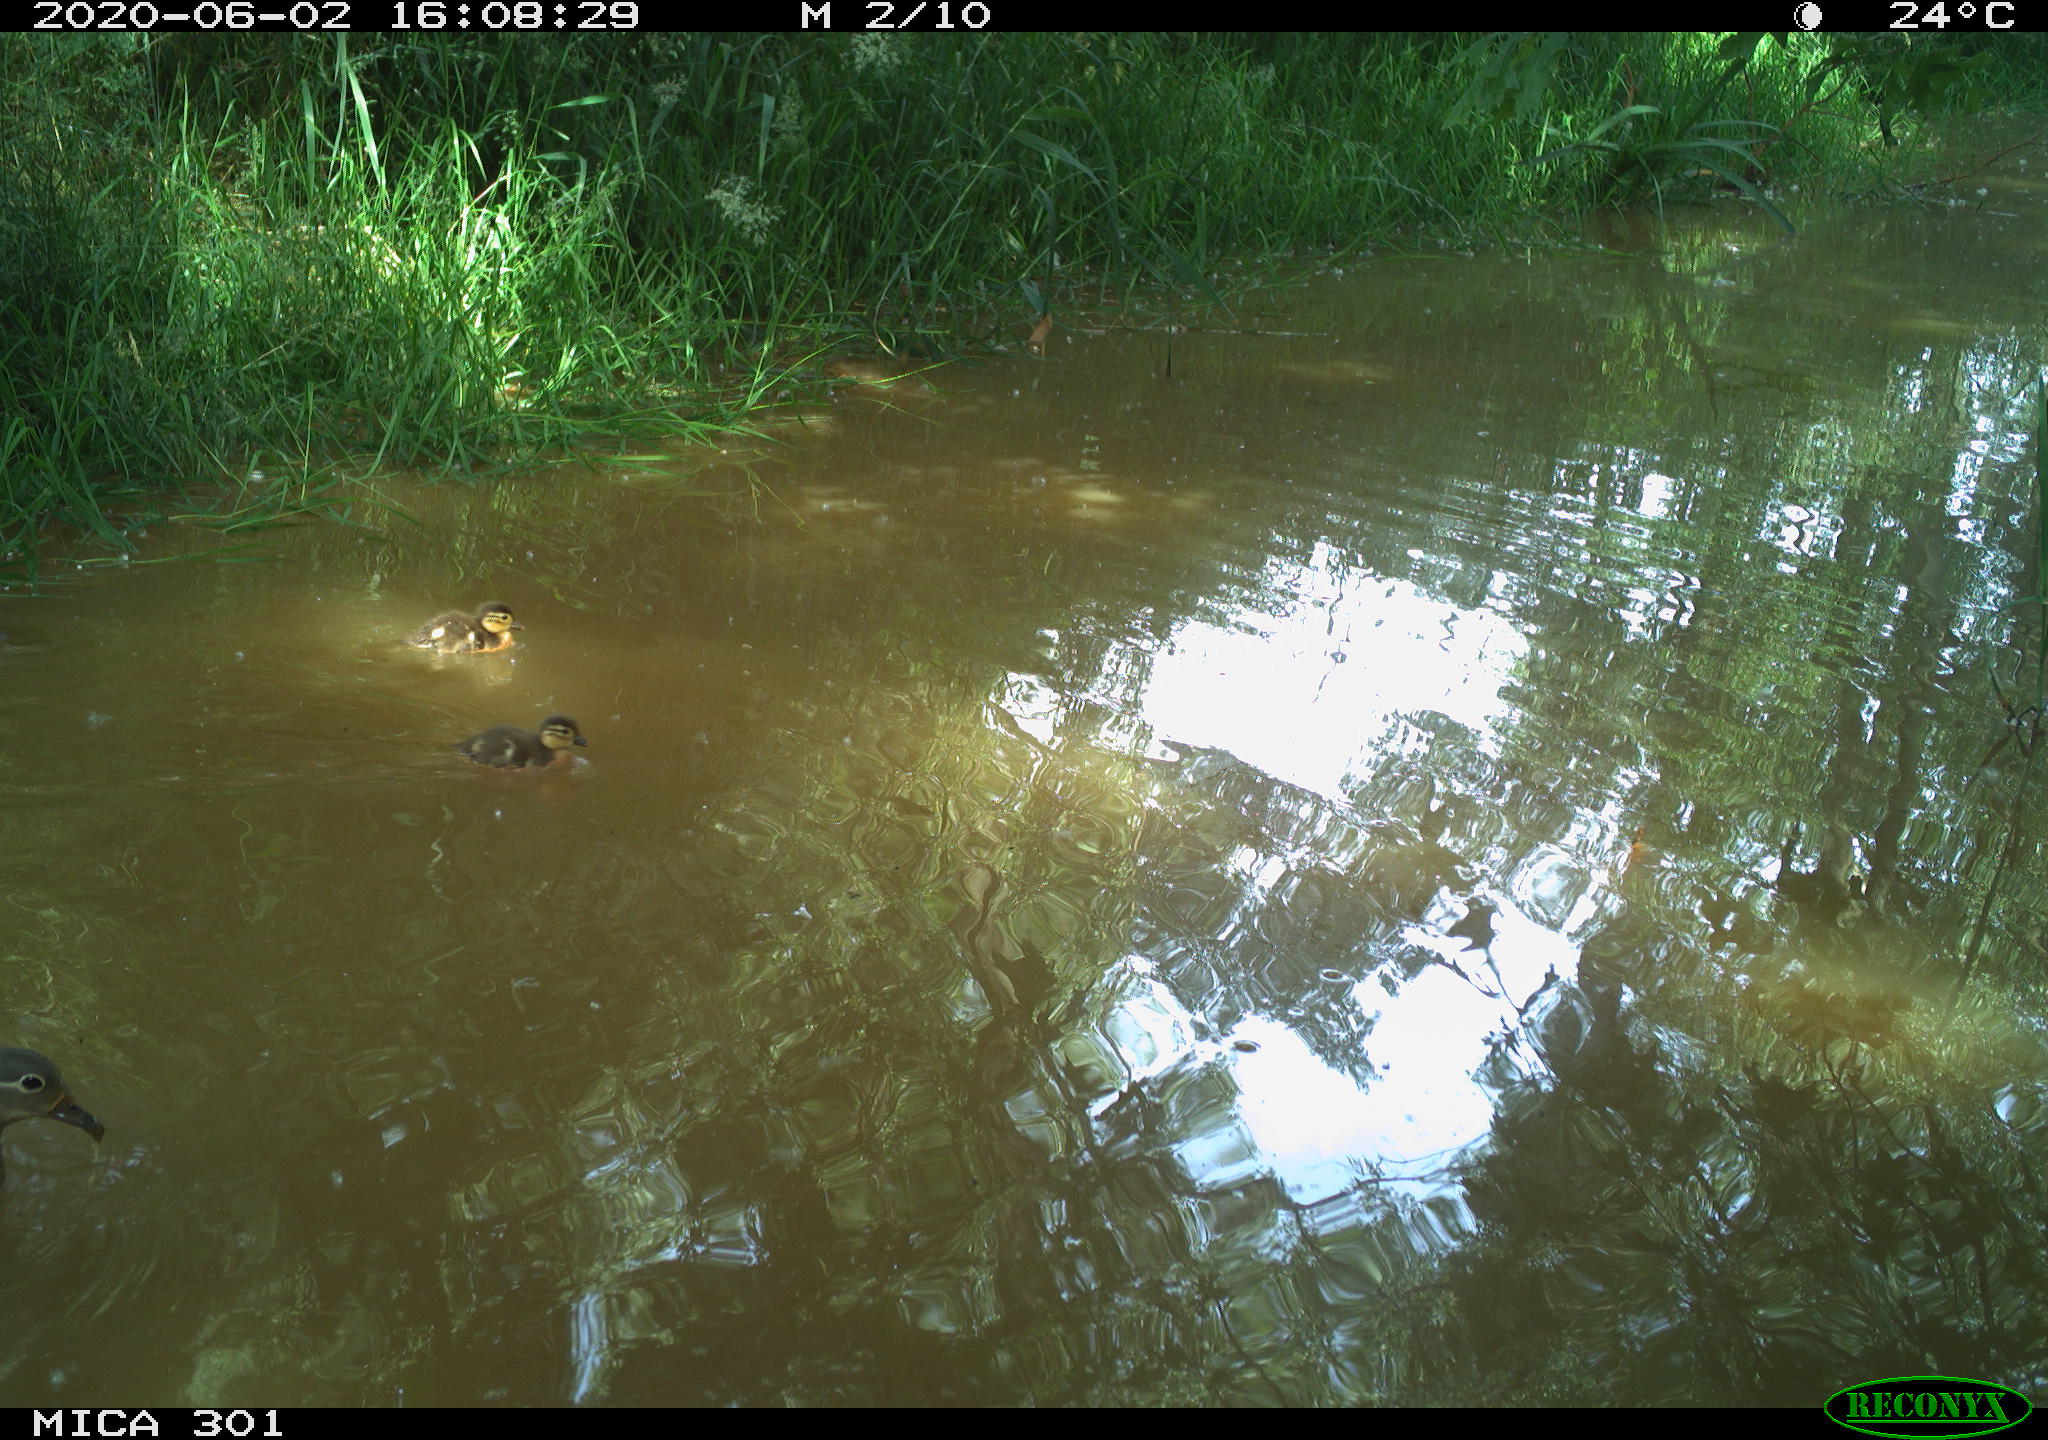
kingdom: Animalia
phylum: Chordata
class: Aves
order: Anseriformes
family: Anatidae
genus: Aix
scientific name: Aix galericulata
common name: Mandarin duck
